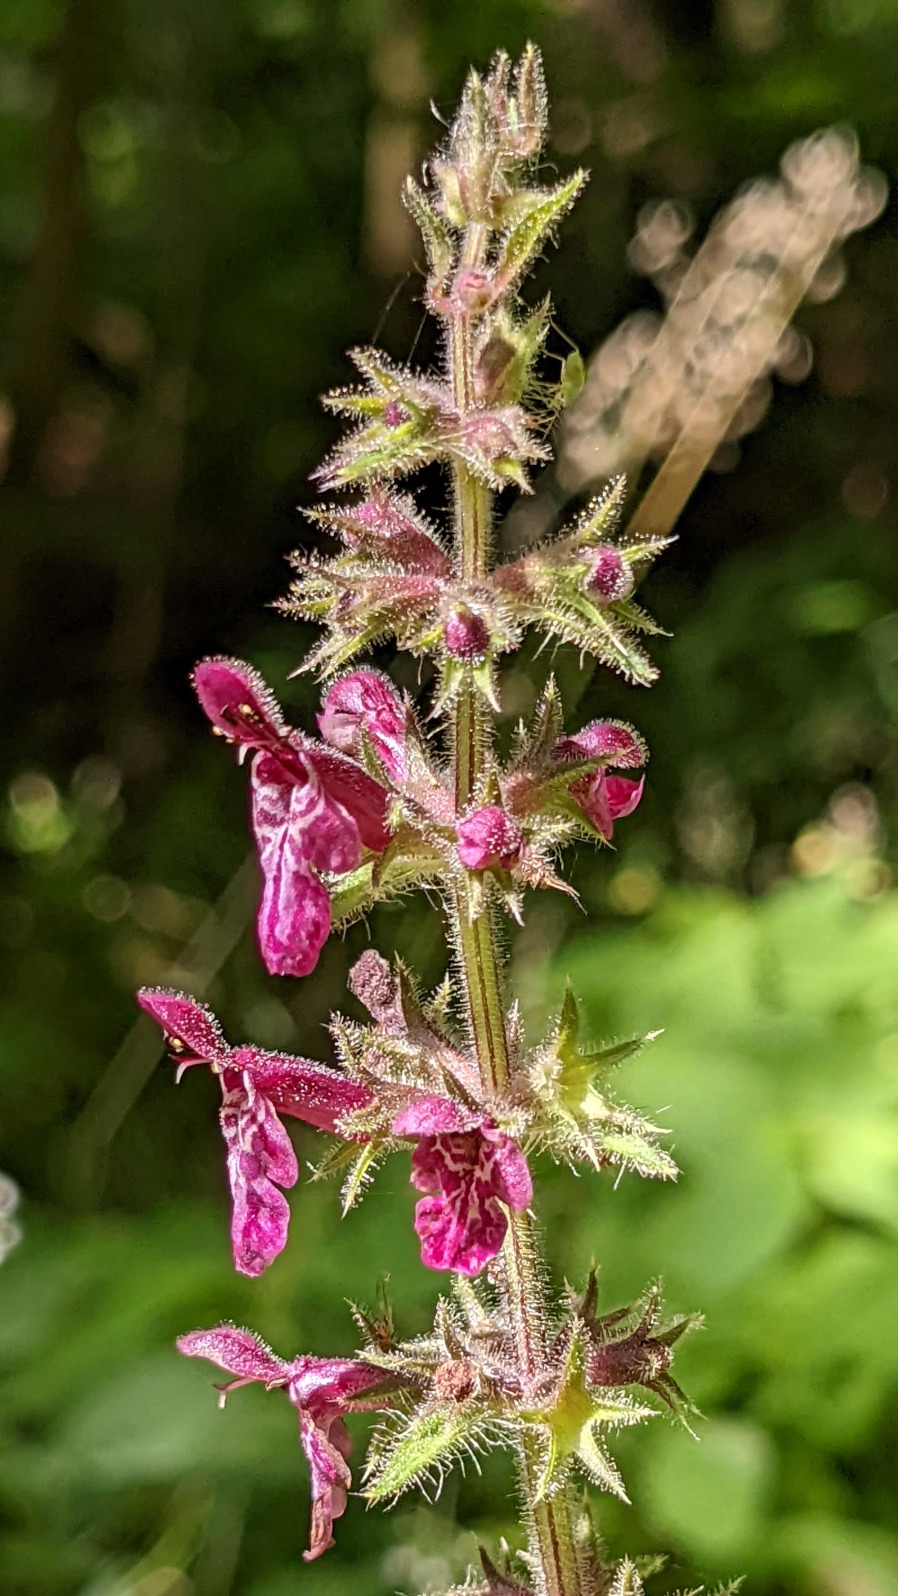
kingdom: Plantae
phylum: Tracheophyta
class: Magnoliopsida
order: Lamiales
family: Lamiaceae
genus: Stachys
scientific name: Stachys sylvatica
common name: Skov-galtetand
